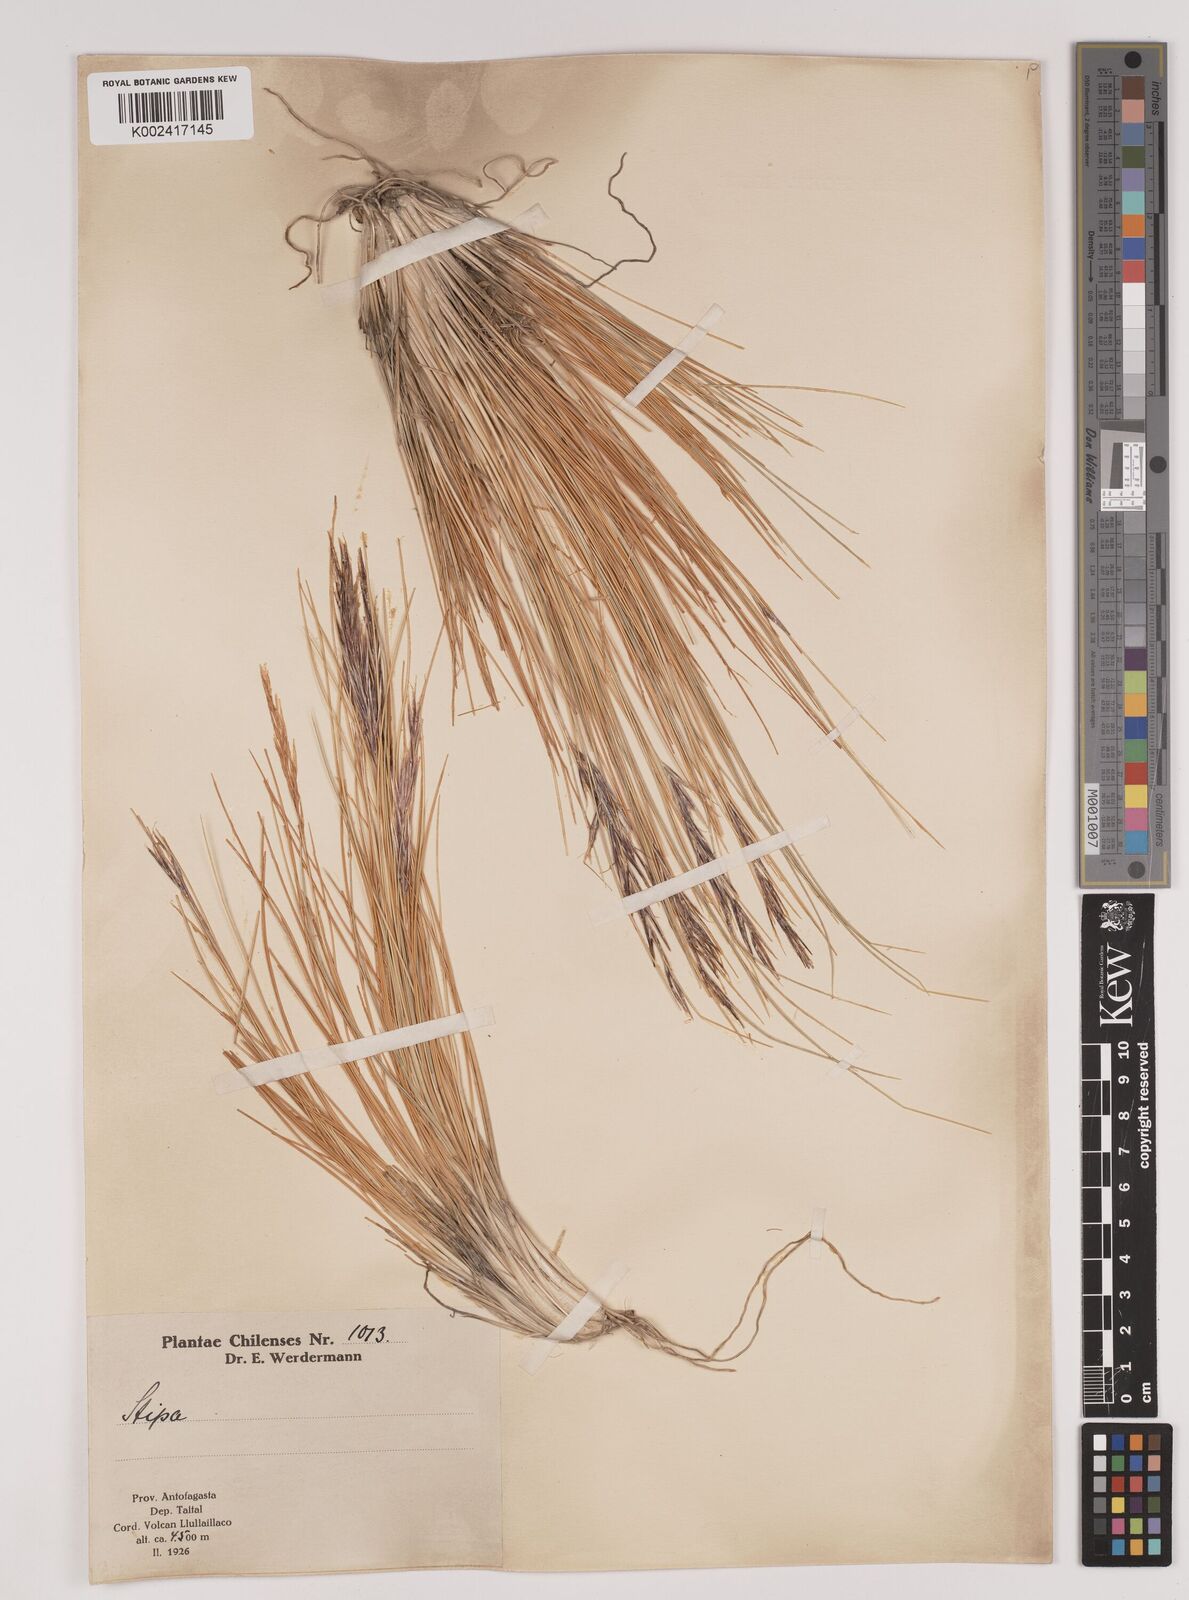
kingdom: Plantae
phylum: Tracheophyta
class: Liliopsida
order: Poales
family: Poaceae
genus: Stipa
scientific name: Stipa
